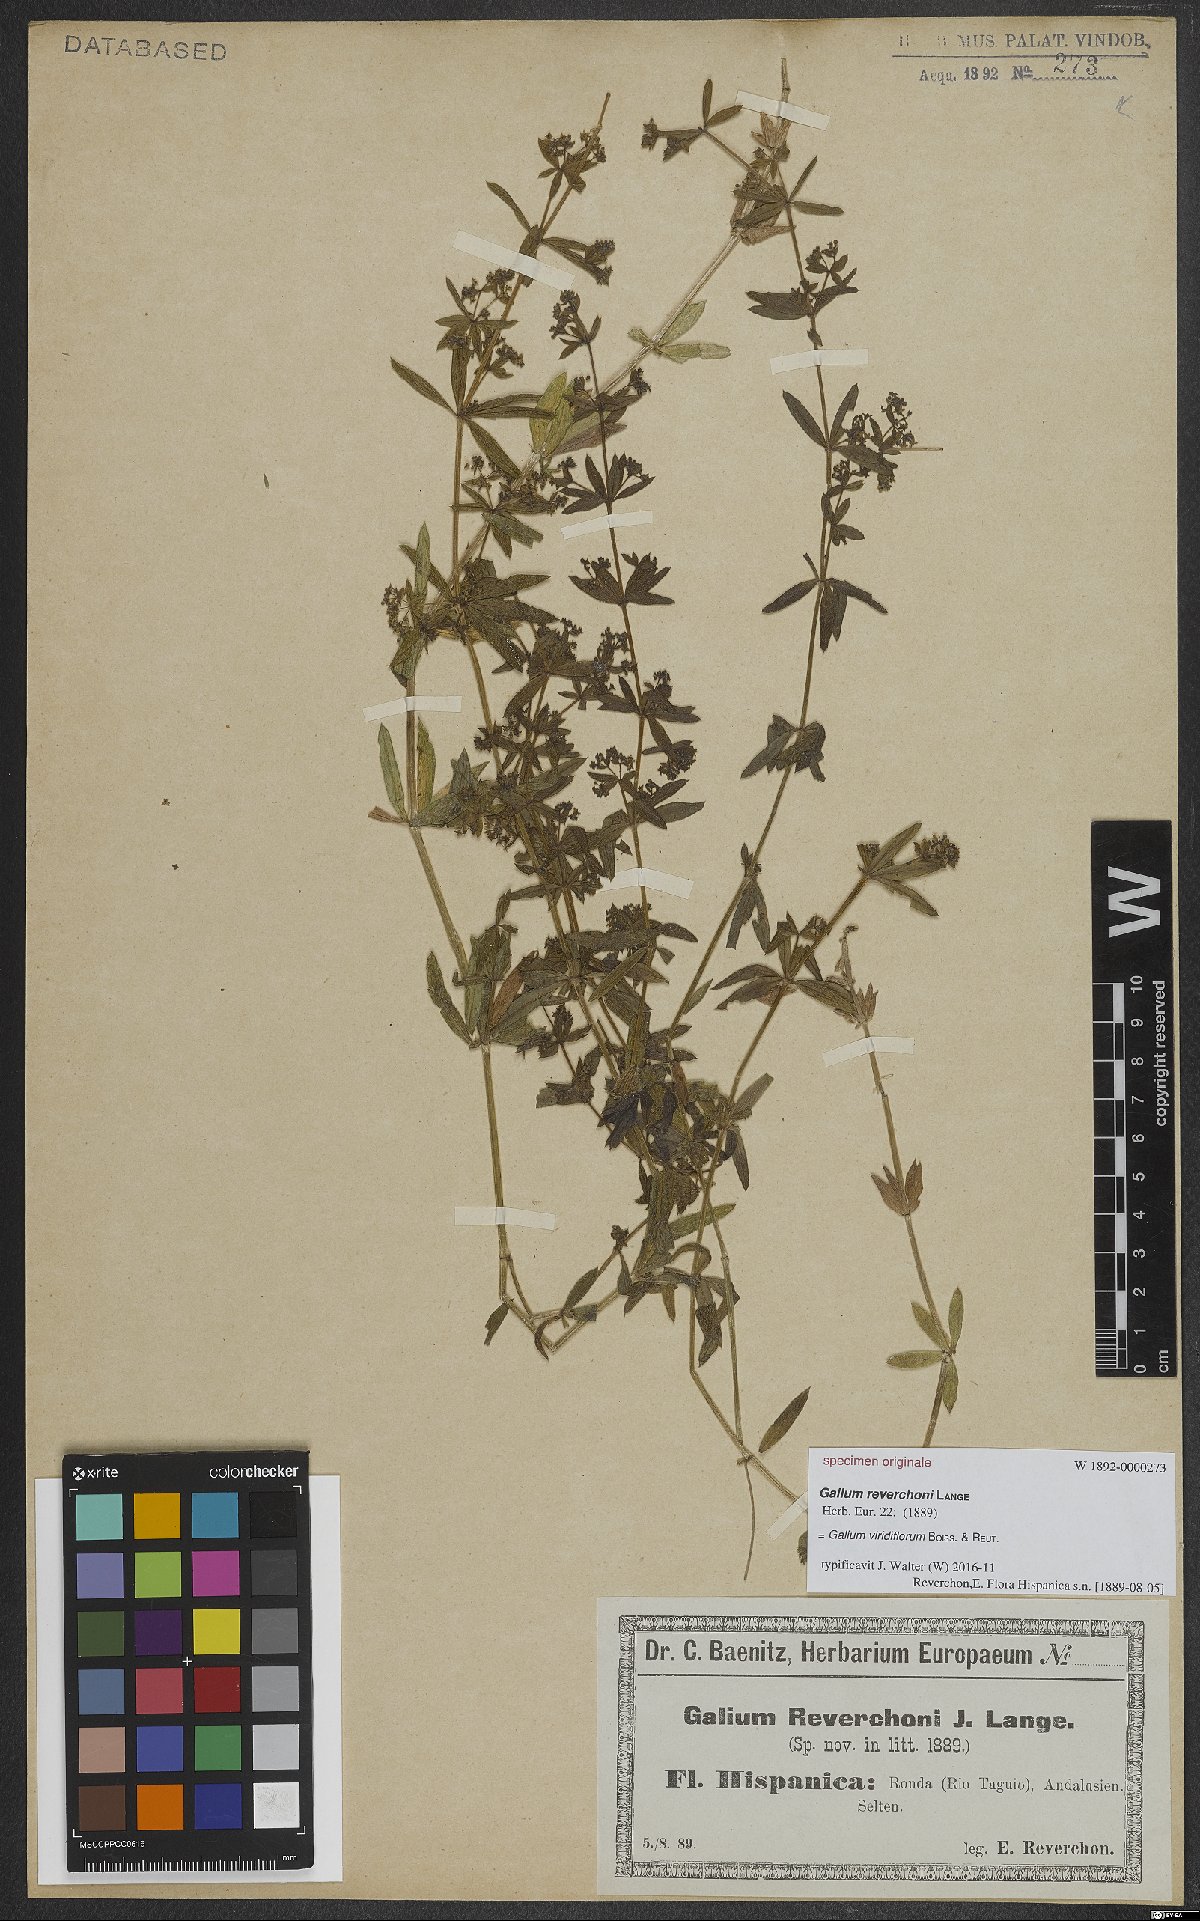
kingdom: Plantae
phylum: Tracheophyta
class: Magnoliopsida
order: Gentianales
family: Rubiaceae
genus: Galium
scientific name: Galium viridiflorum
